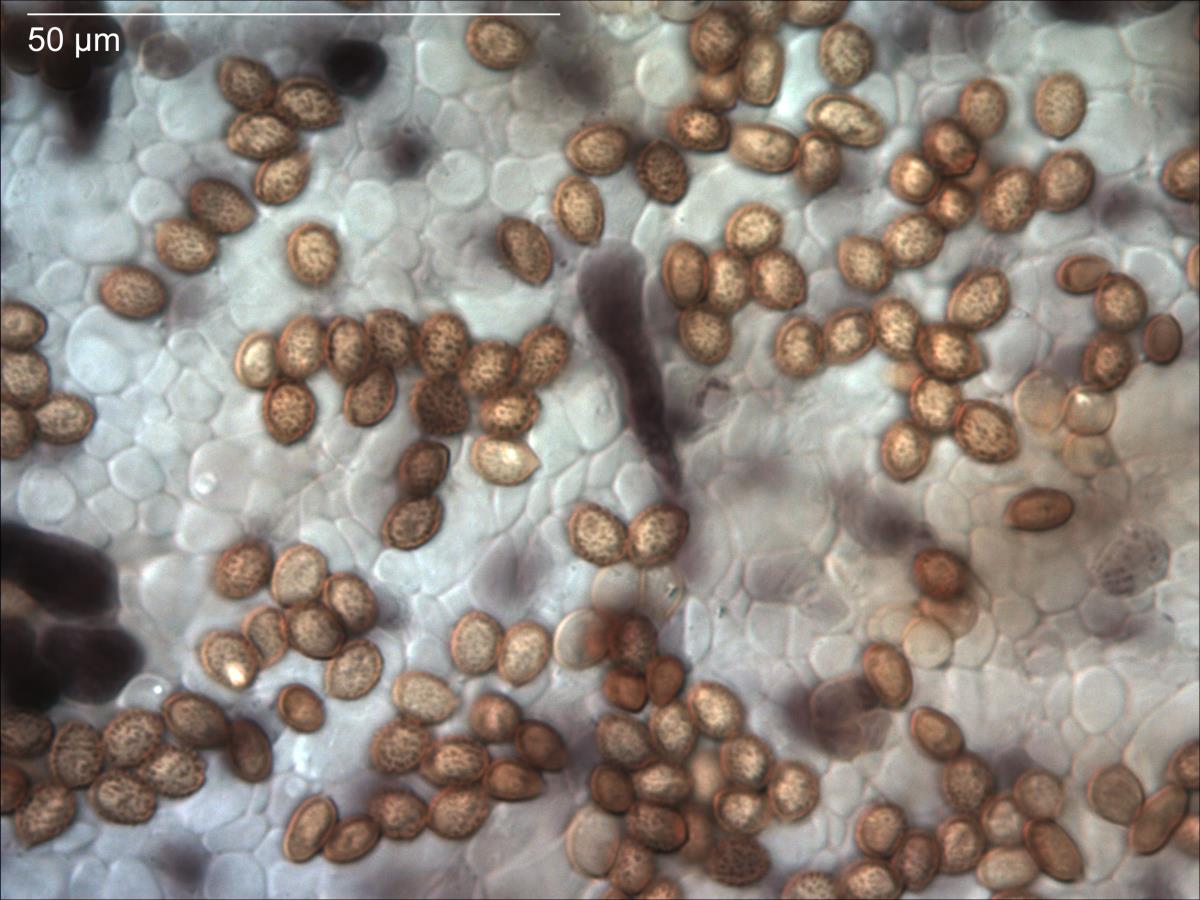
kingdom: Fungi
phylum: Basidiomycota
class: Agaricomycetes
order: Agaricales
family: Cortinariaceae
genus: Cortinarius
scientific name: Cortinarius elaiops
